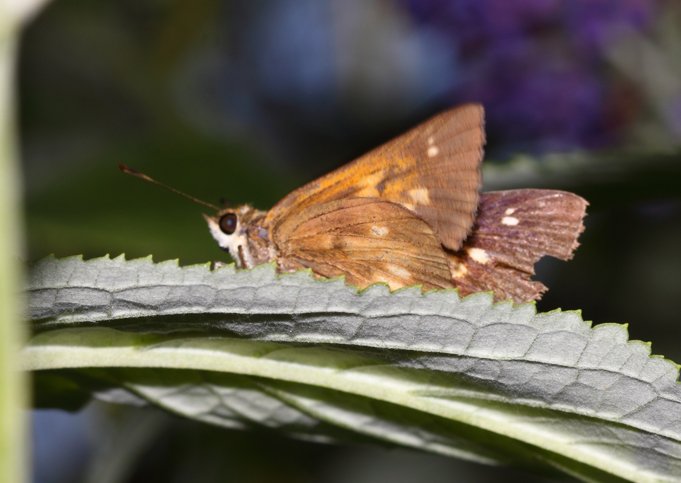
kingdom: Animalia
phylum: Arthropoda
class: Insecta
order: Lepidoptera
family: Hesperiidae
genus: Poanes
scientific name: Poanes viator
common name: Broad-winged Skipper
